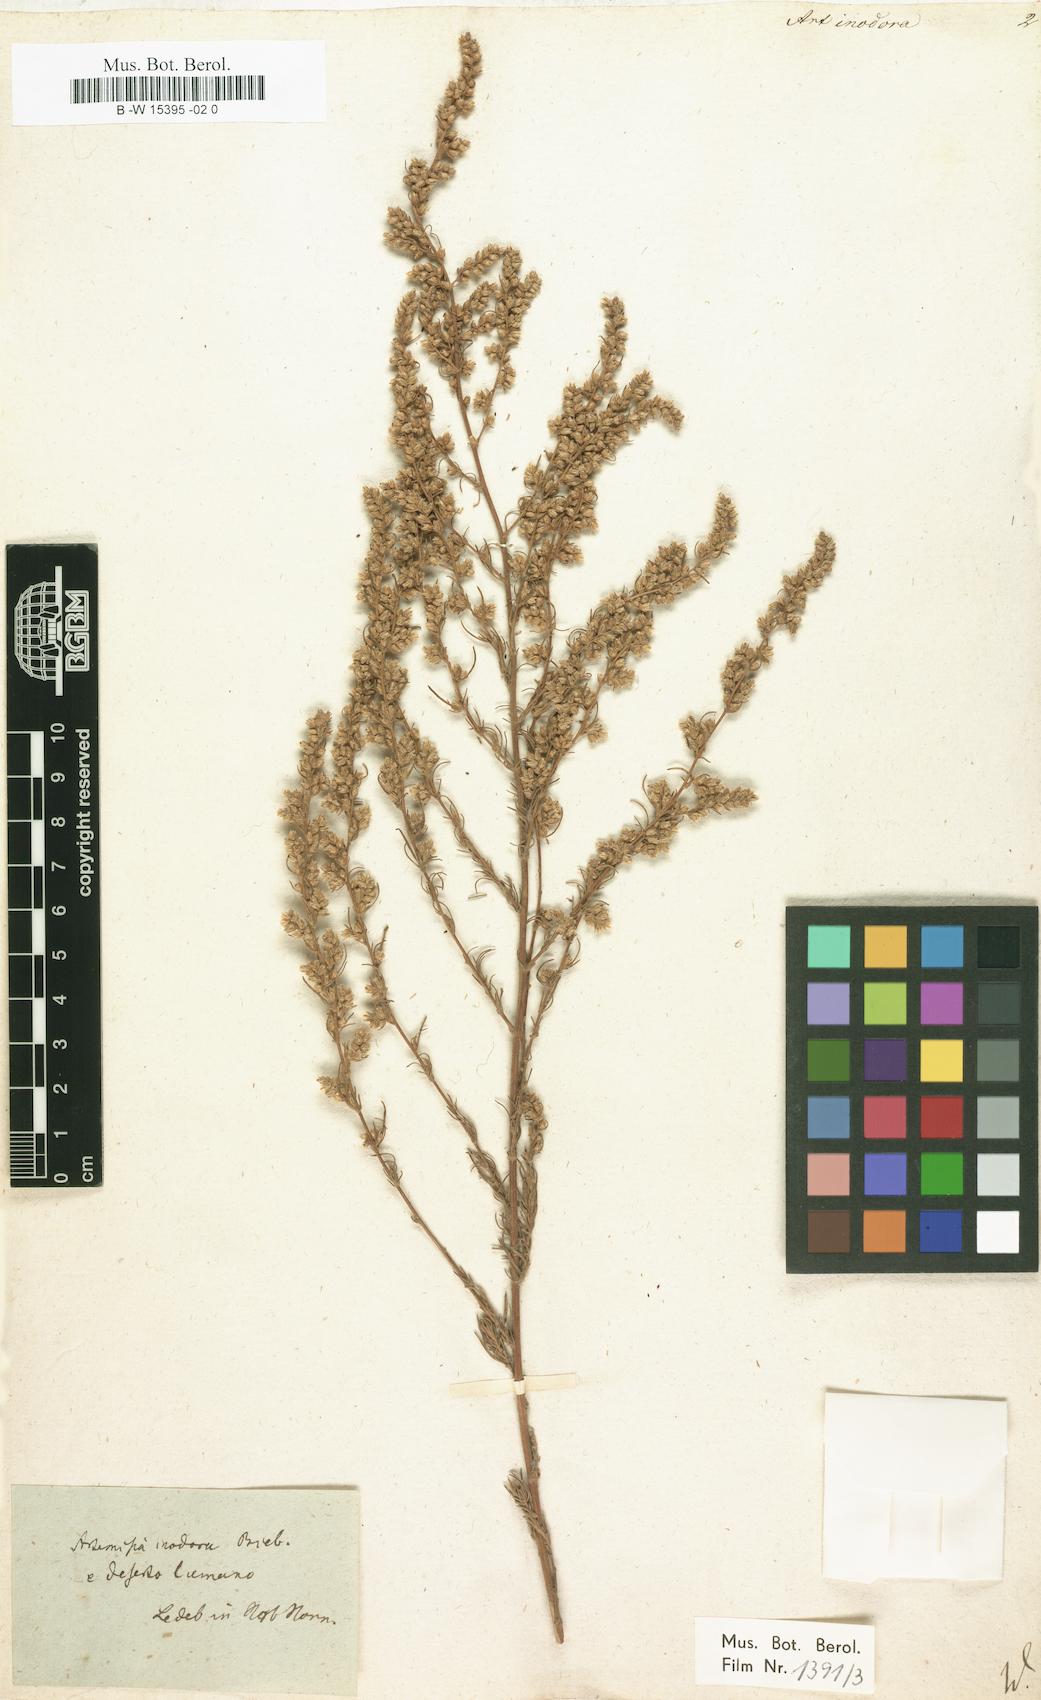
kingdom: Plantae
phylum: Tracheophyta
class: Magnoliopsida
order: Asterales
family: Asteraceae
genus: Artemisia
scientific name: Artemisia marschalliana
